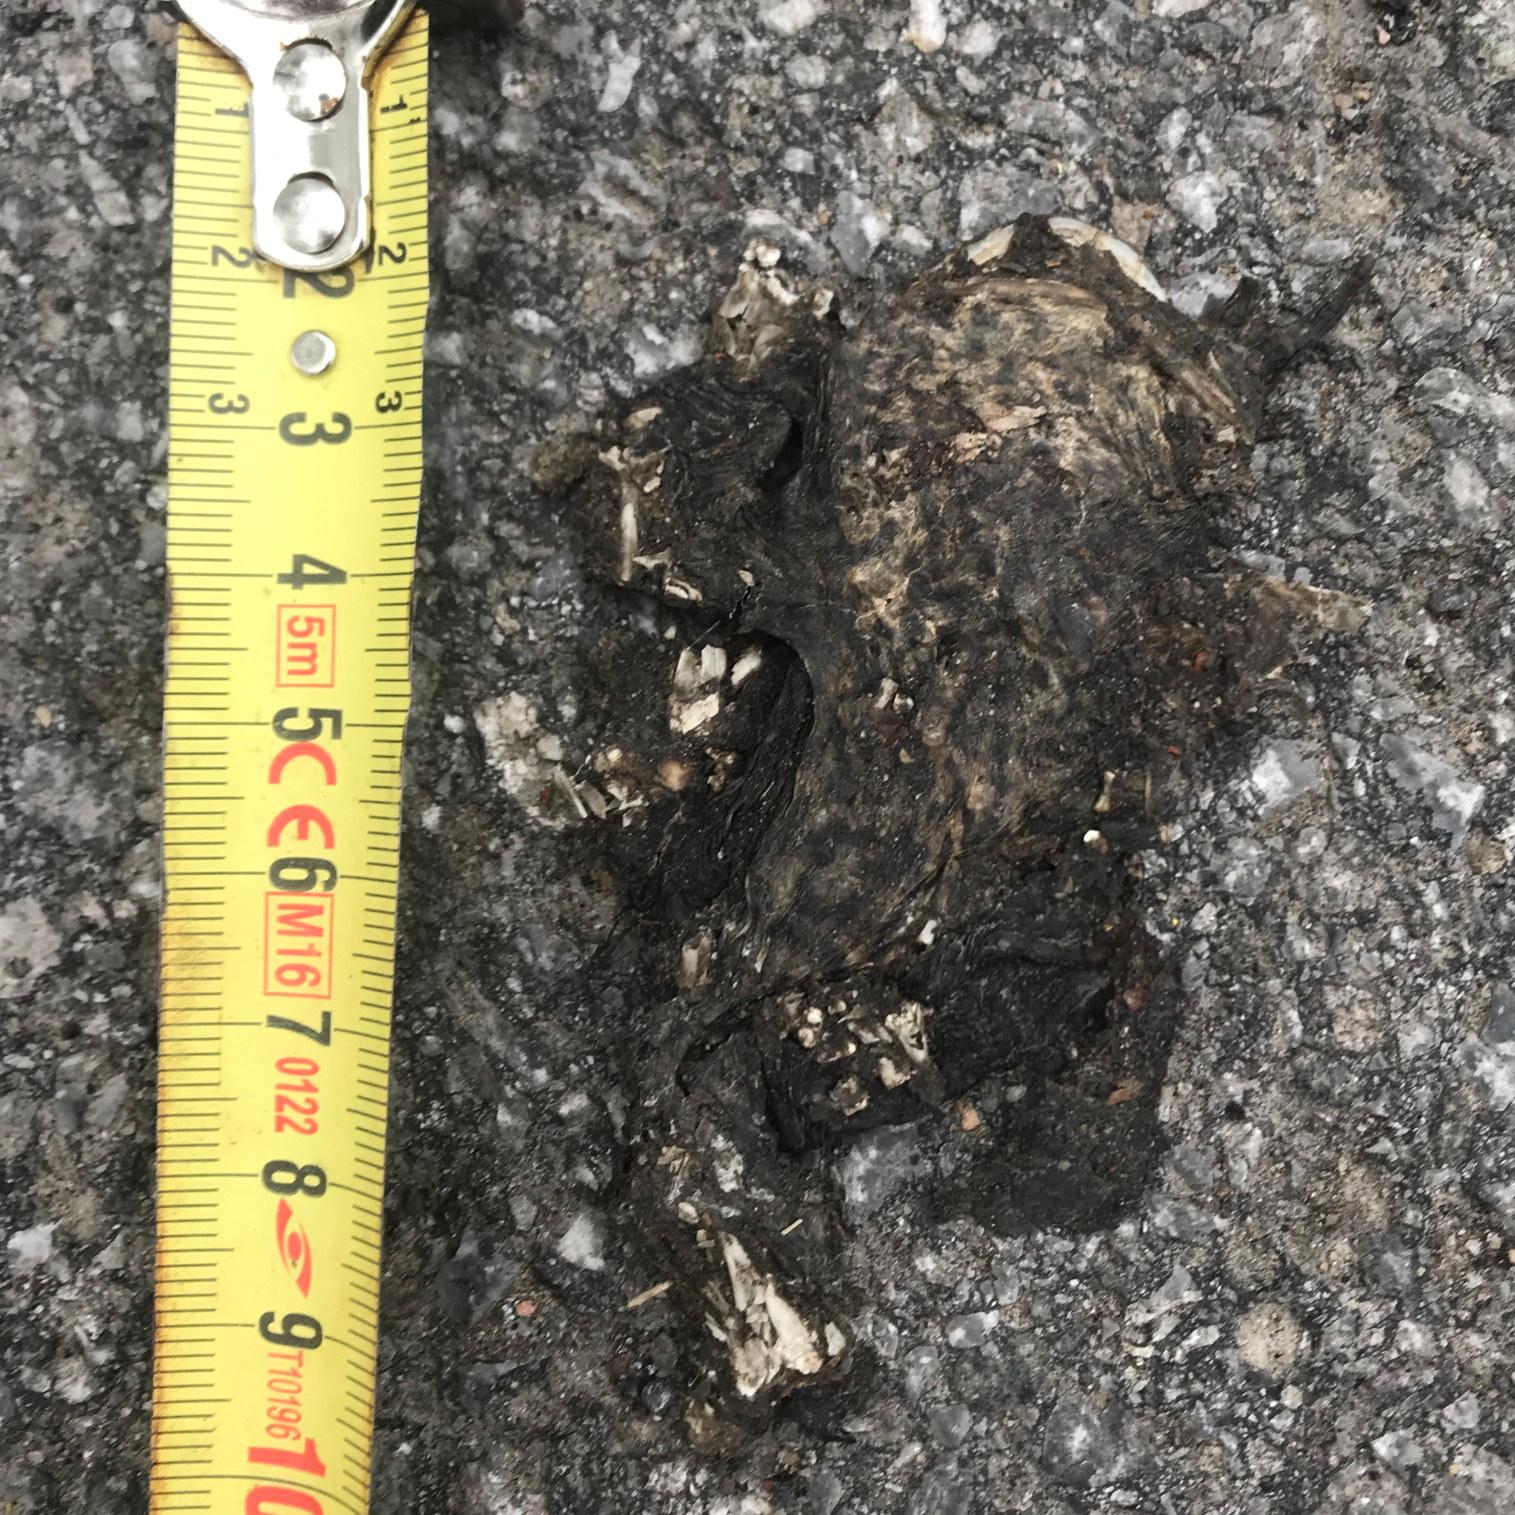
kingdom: Animalia
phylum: Chordata
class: Amphibia
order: Anura
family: Bufonidae
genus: Bufo
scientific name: Bufo bufo
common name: Common toad
